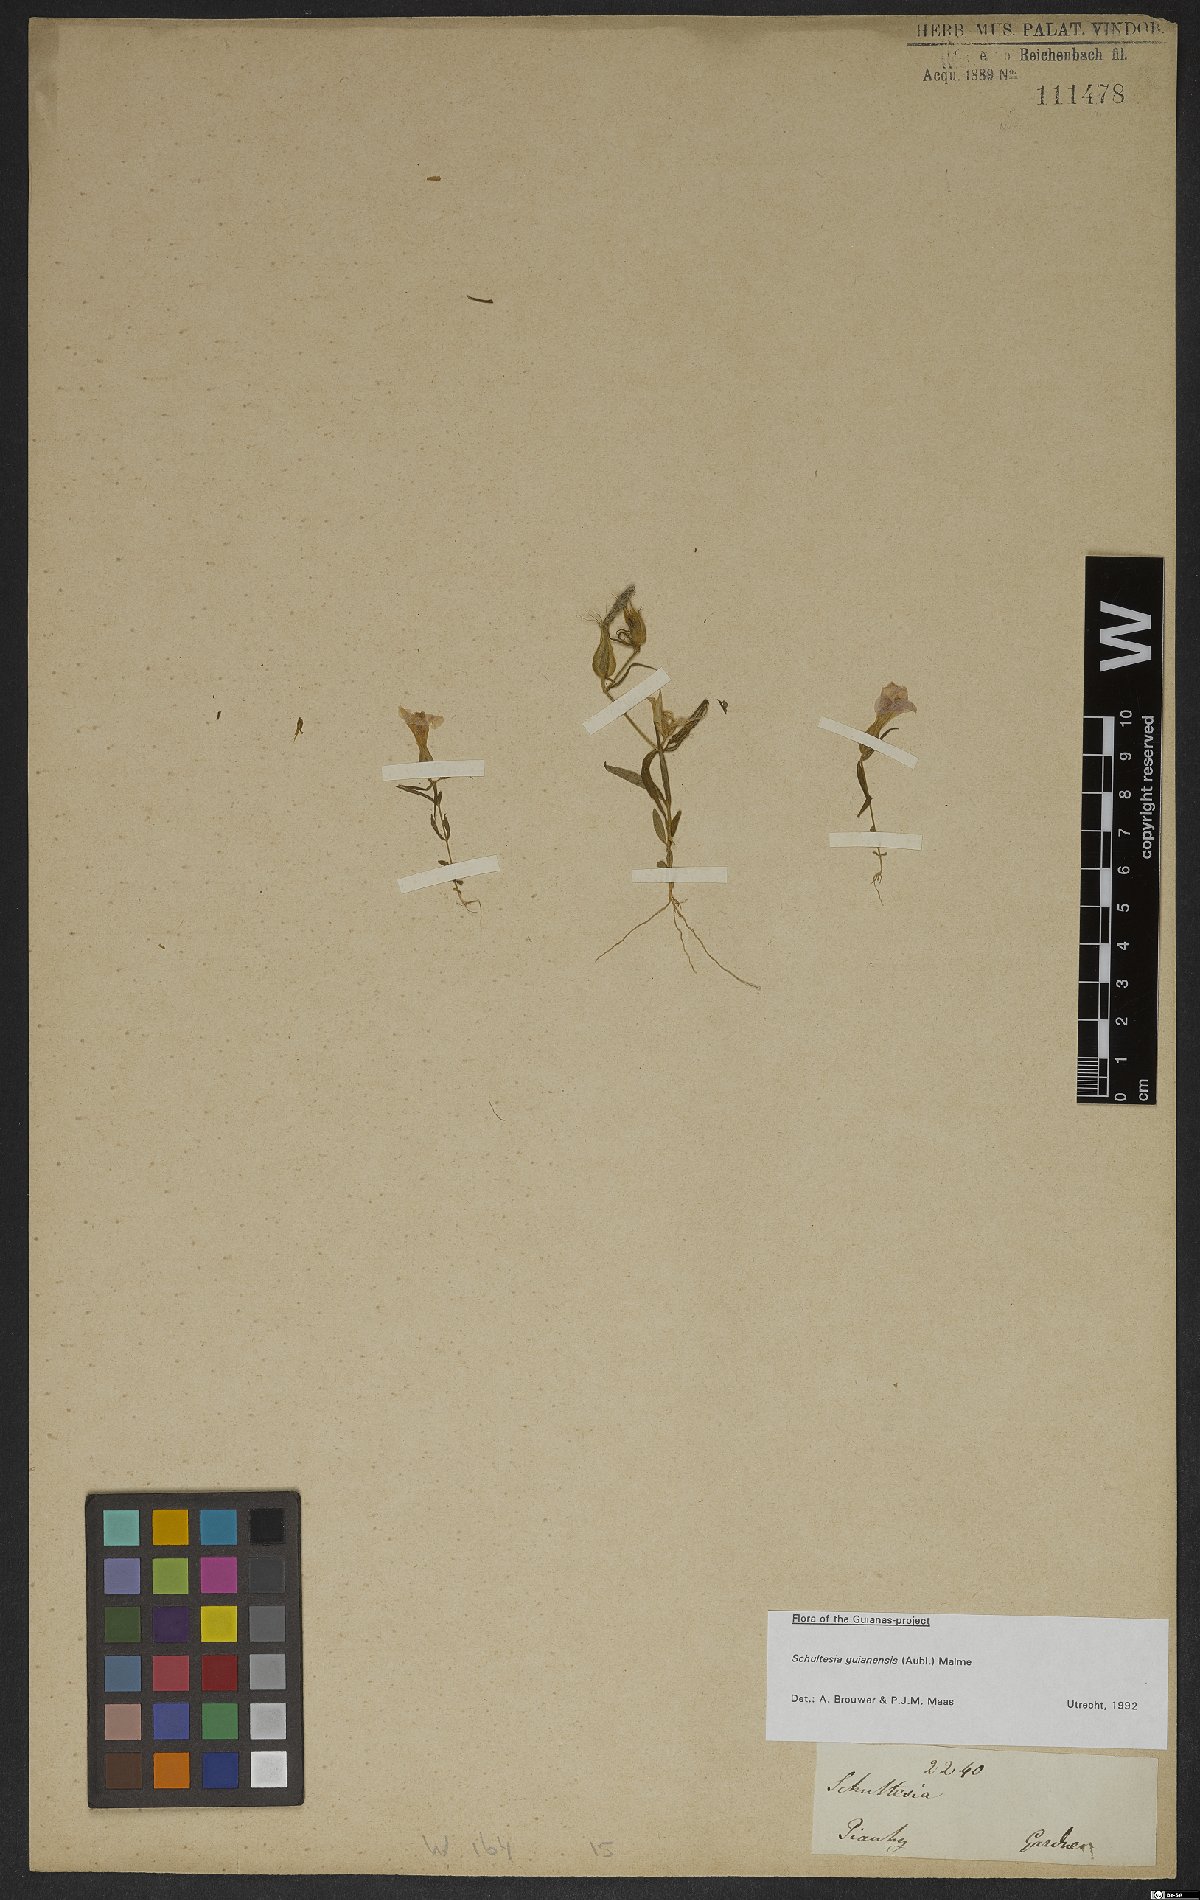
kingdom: Plantae
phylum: Tracheophyta
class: Magnoliopsida
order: Gentianales
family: Gentianaceae
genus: Schultesia
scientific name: Schultesia guianensis
